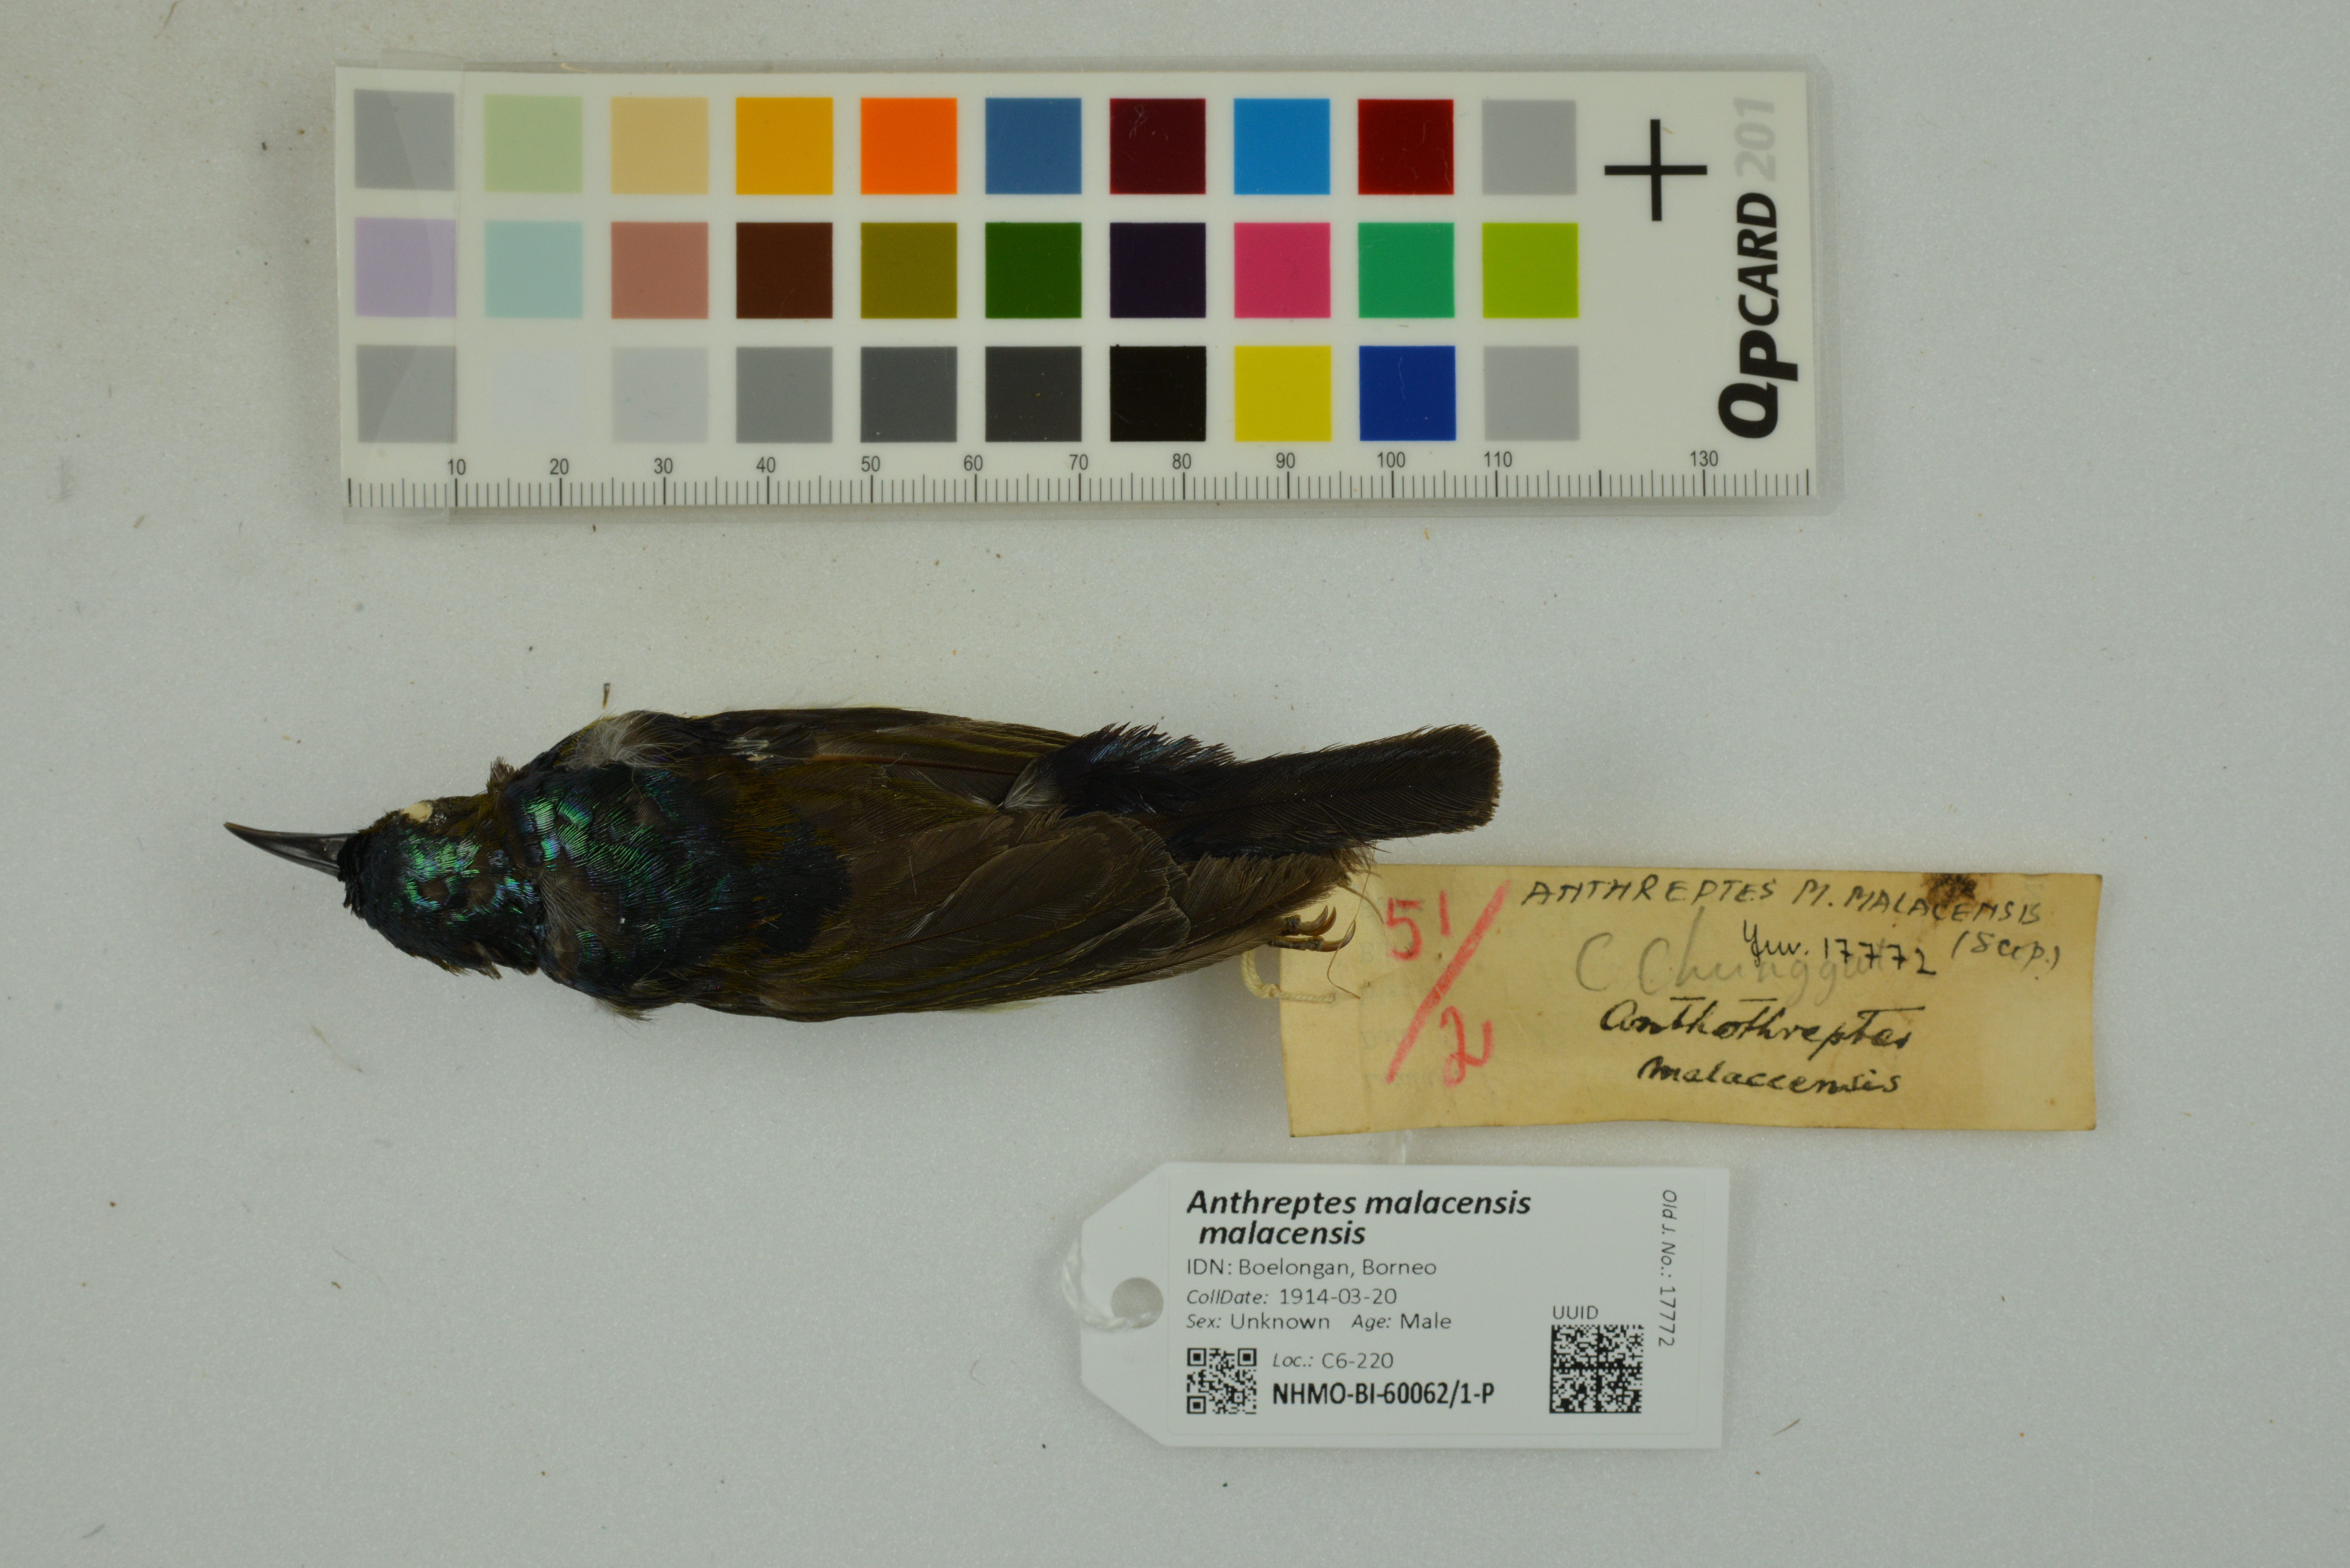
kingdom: Animalia
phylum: Chordata
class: Aves
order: Passeriformes
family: Nectariniidae
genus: Anthreptes
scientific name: Anthreptes malacensis
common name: Brown-throated sunbird
